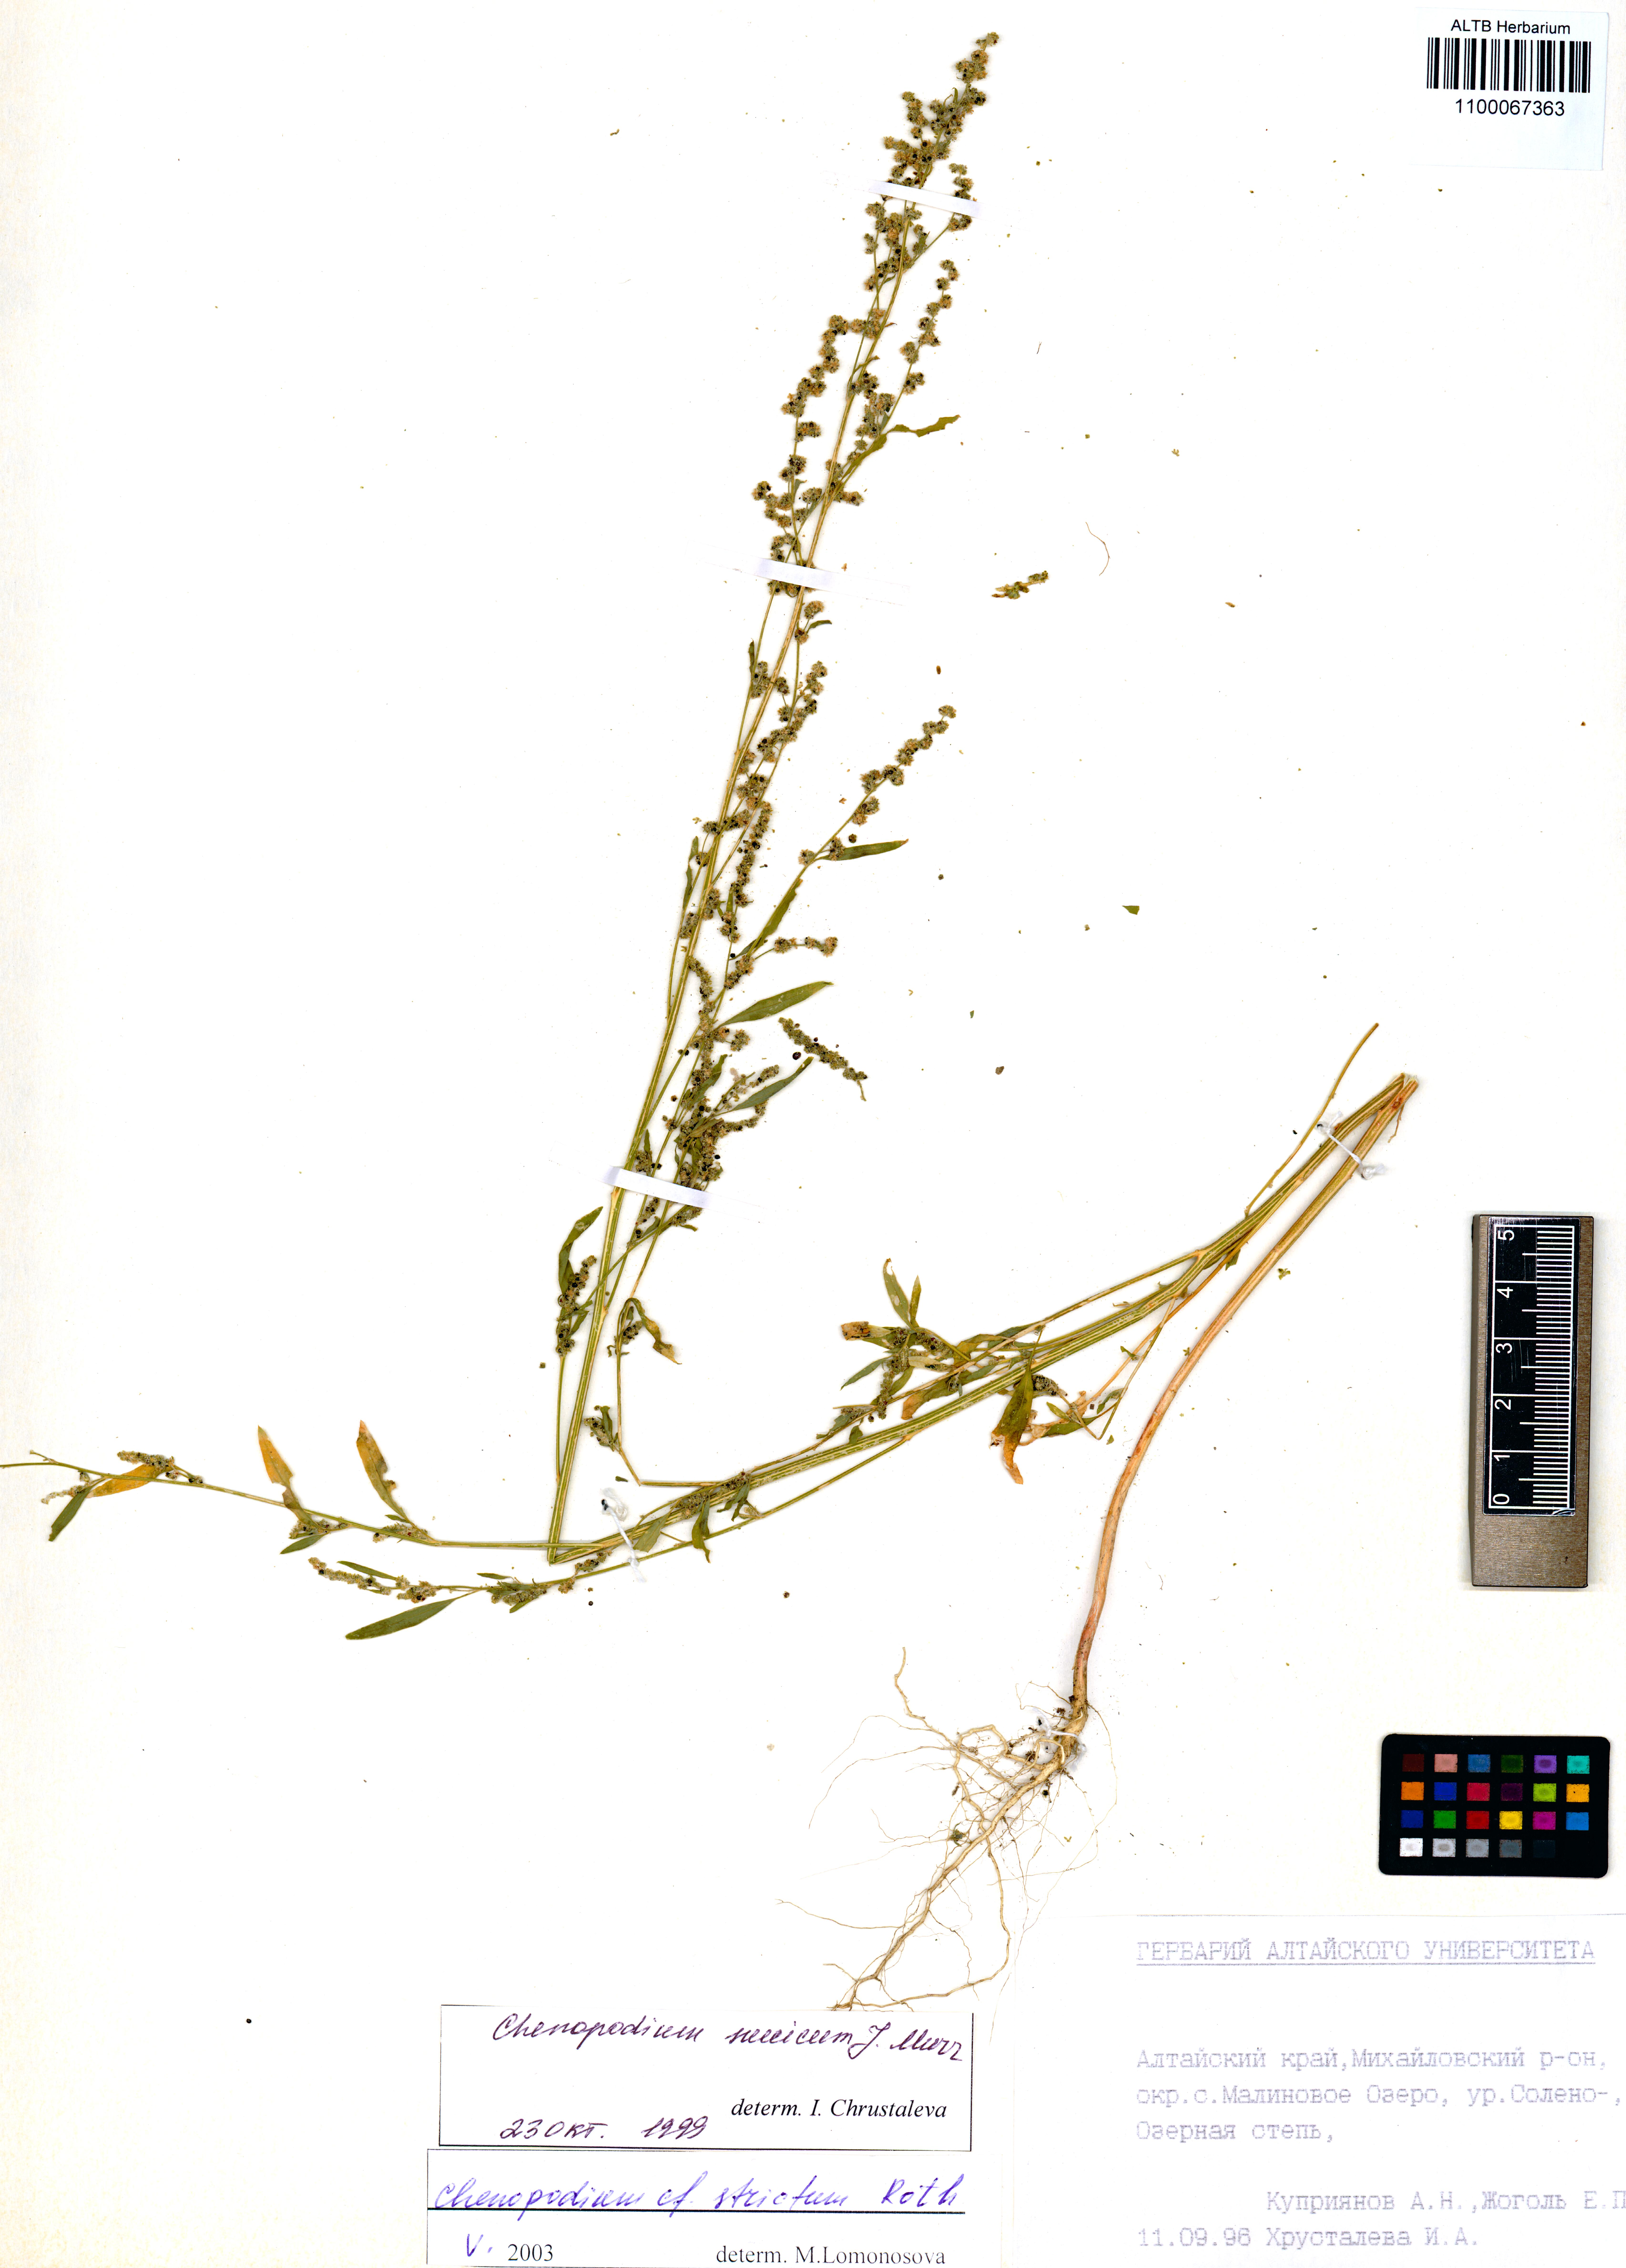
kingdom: Plantae
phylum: Tracheophyta
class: Magnoliopsida
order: Caryophyllales
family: Amaranthaceae
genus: Chenopodium
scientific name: Chenopodium album
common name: Fat-hen
